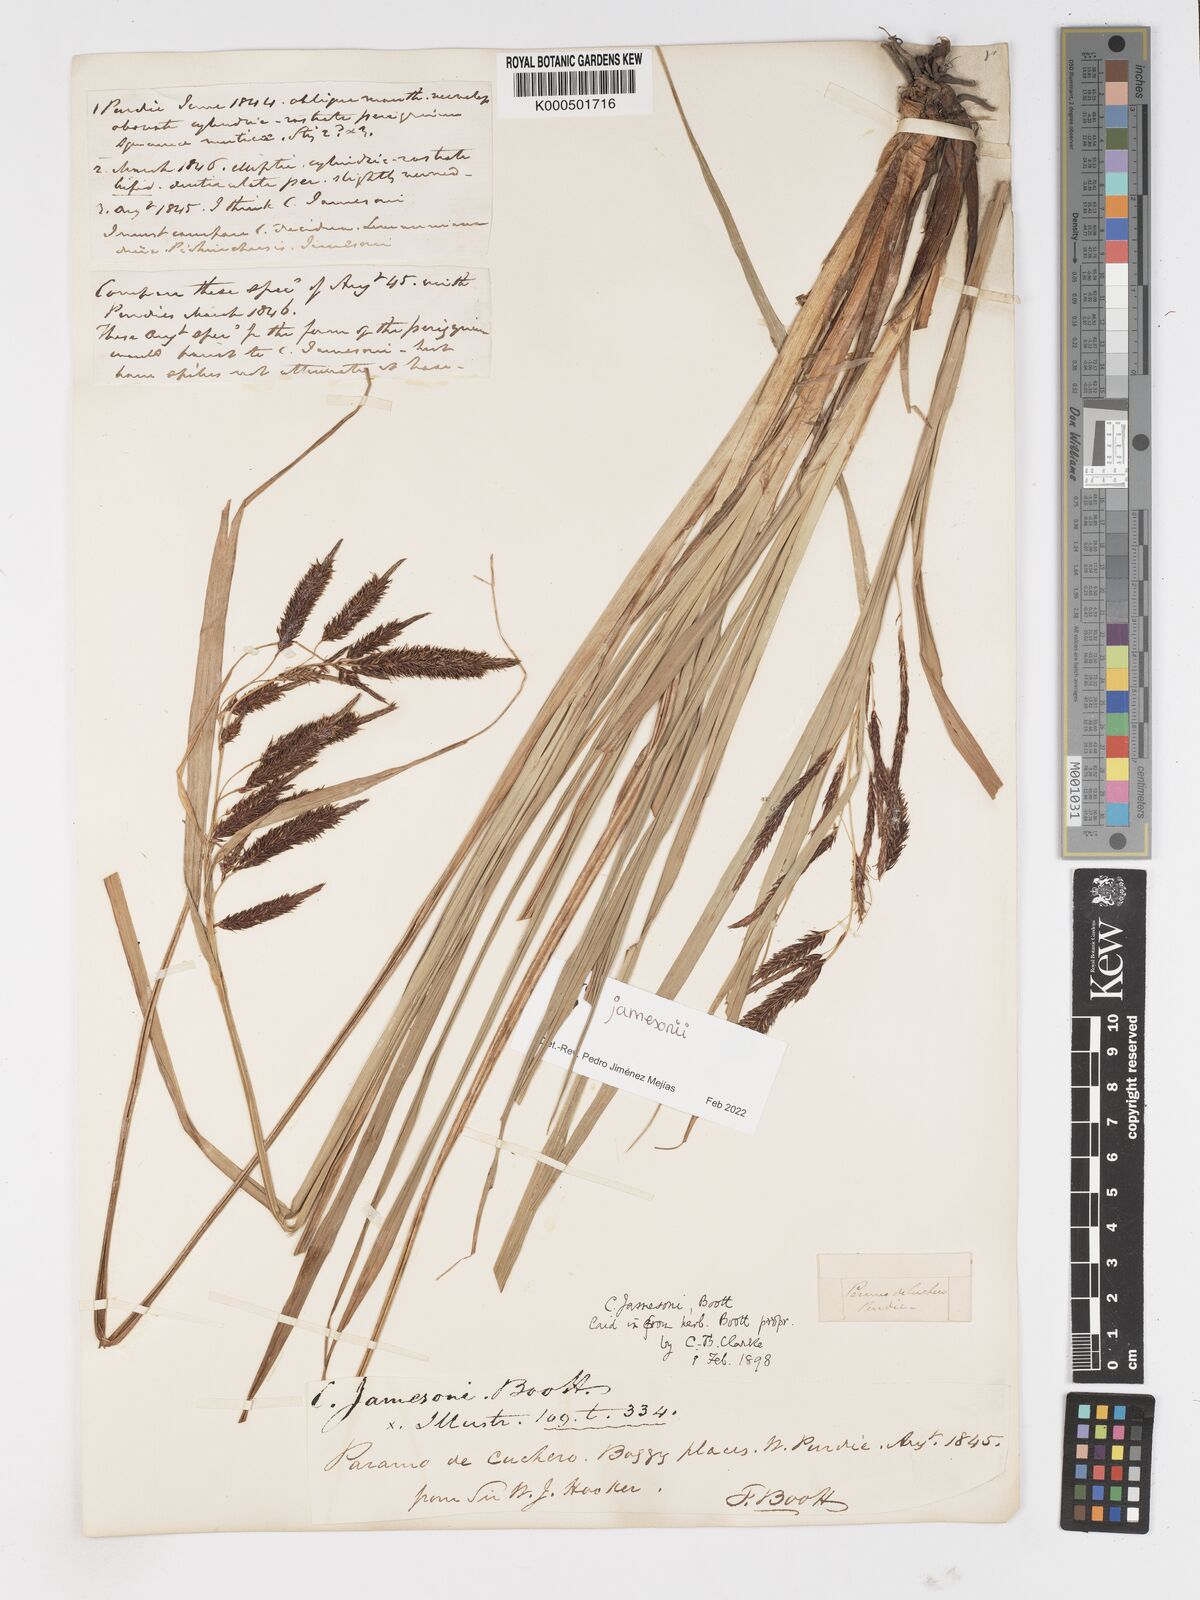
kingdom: Plantae
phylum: Tracheophyta
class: Liliopsida
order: Poales
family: Cyperaceae
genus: Carex
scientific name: Carex jamesonii
